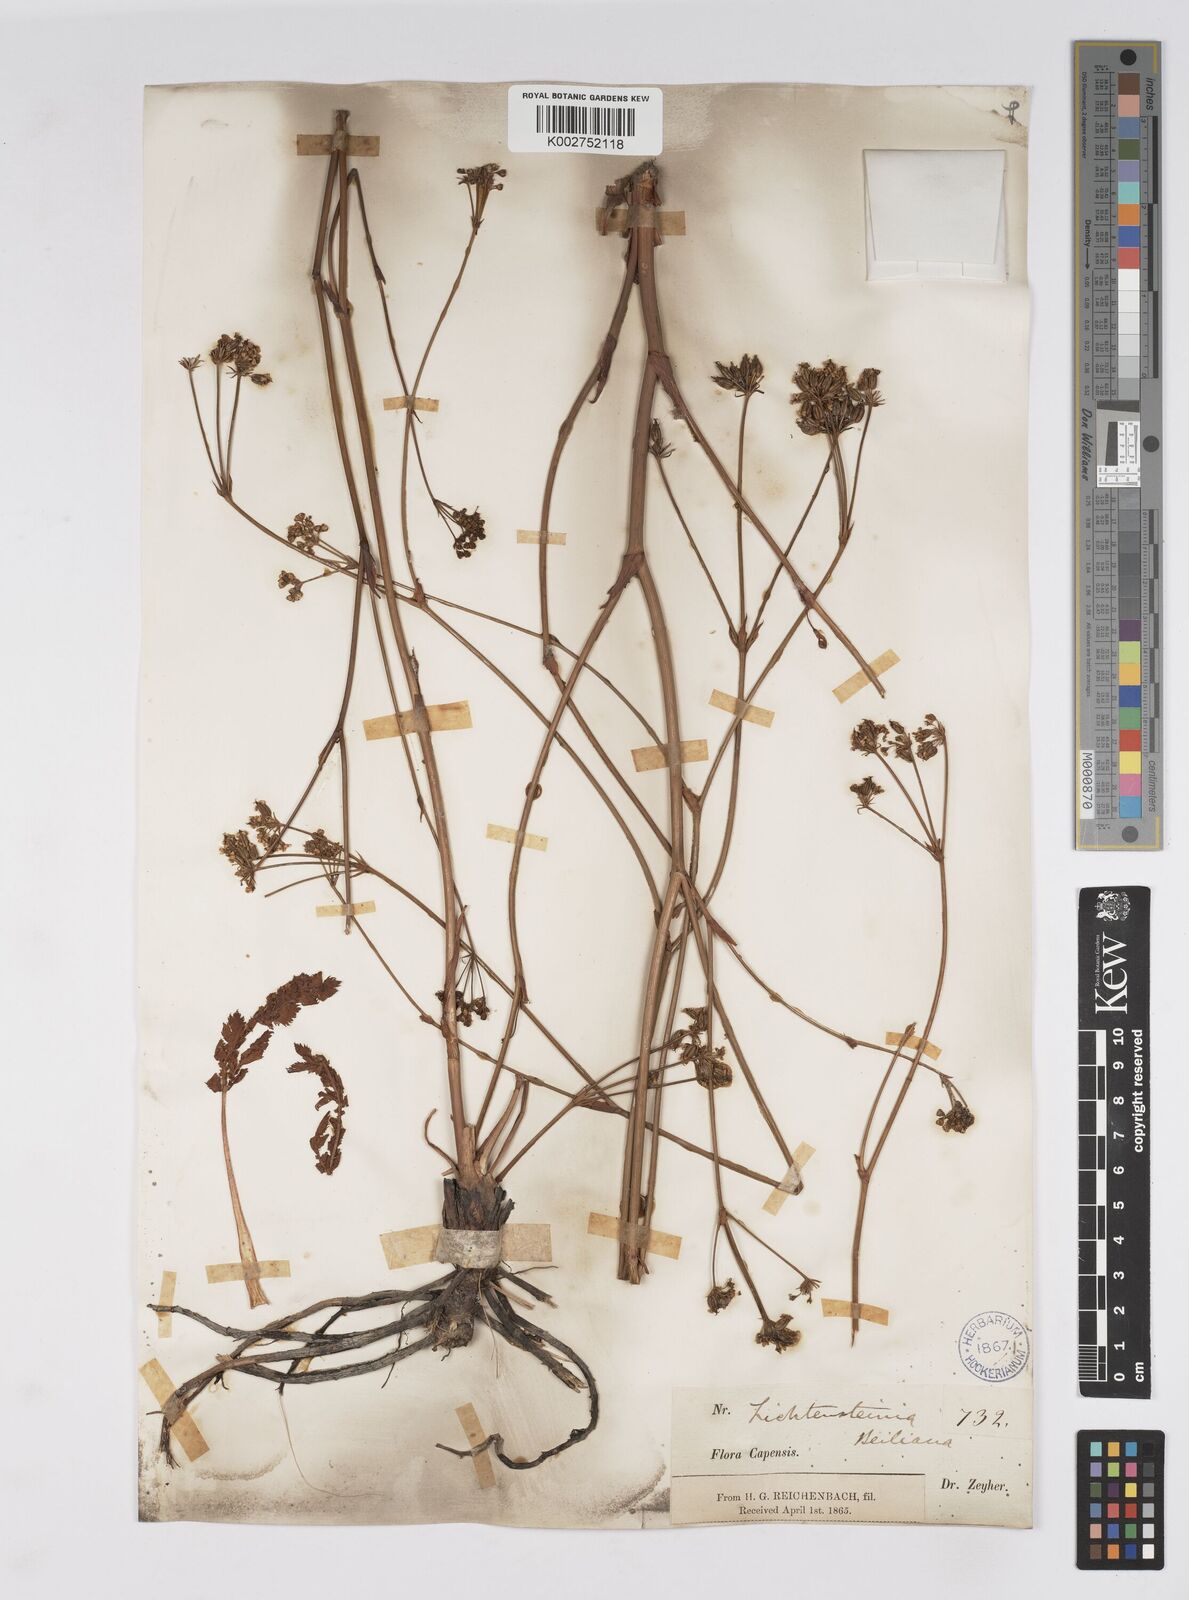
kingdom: Plantae
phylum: Tracheophyta
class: Magnoliopsida
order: Apiales
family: Apiaceae
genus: Lichtensteinia
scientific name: Lichtensteinia obscura
